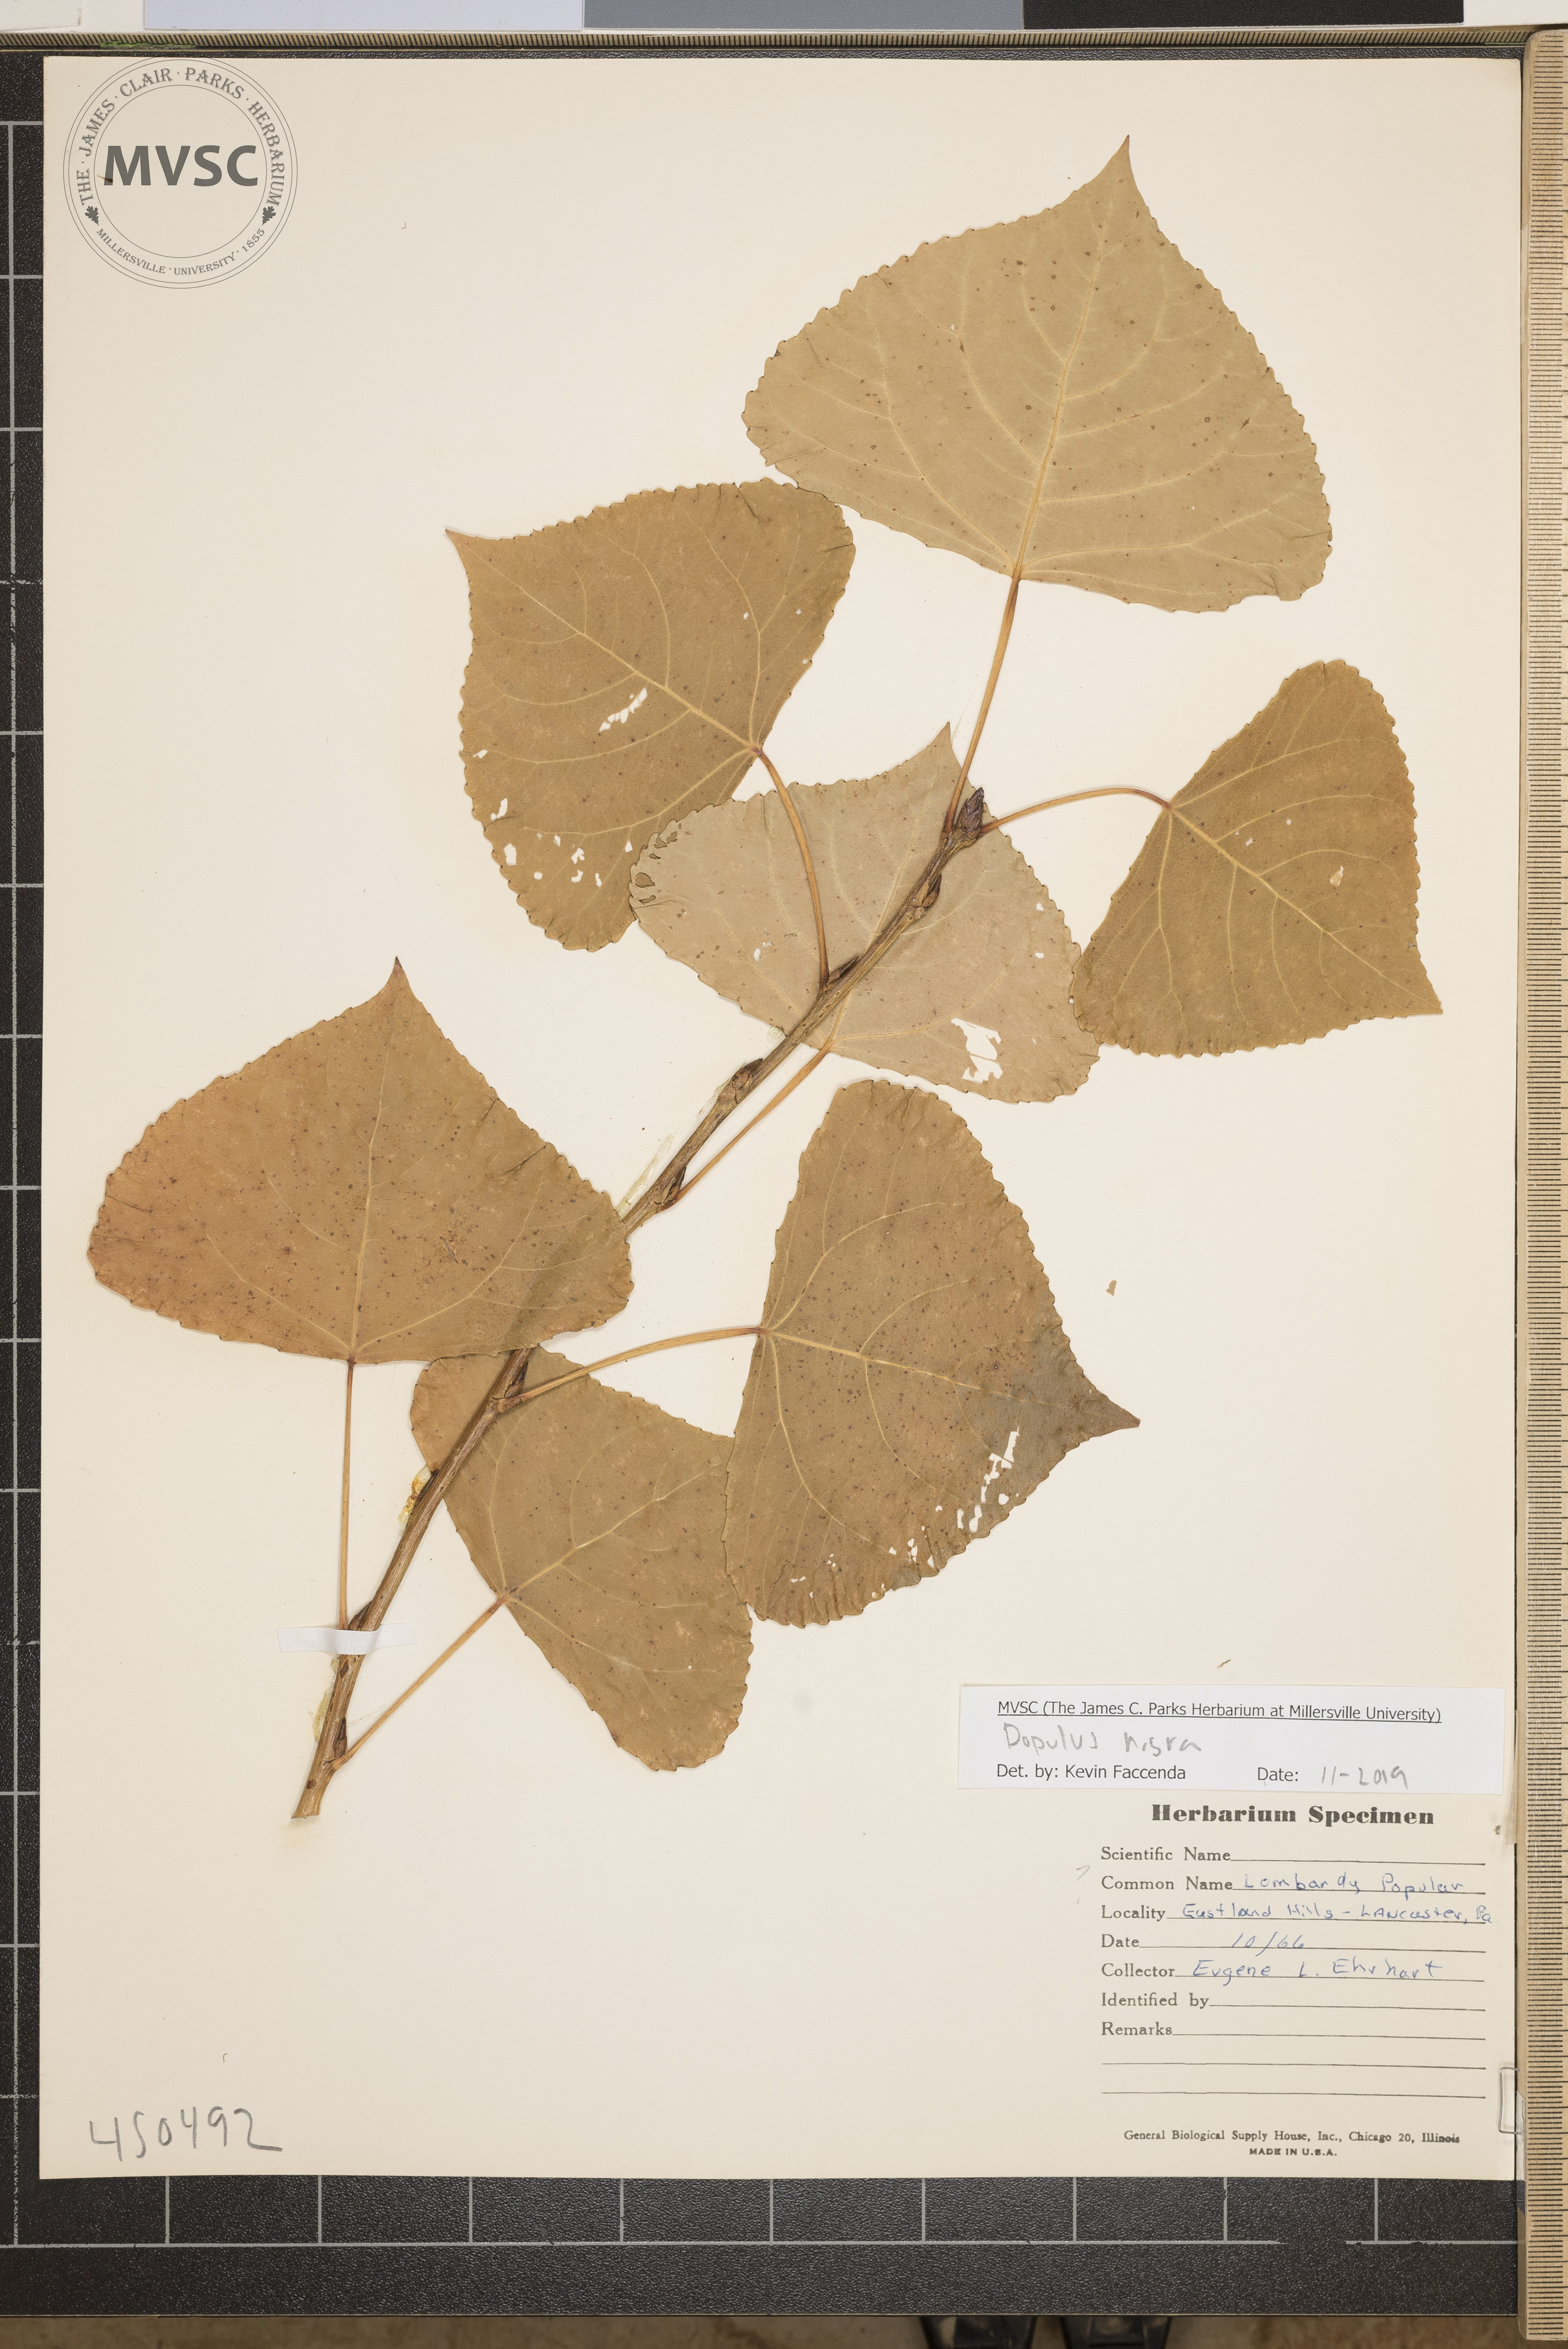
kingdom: Plantae
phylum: Tracheophyta
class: Magnoliopsida
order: Malpighiales
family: Salicaceae
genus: Populus
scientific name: Populus nigra
